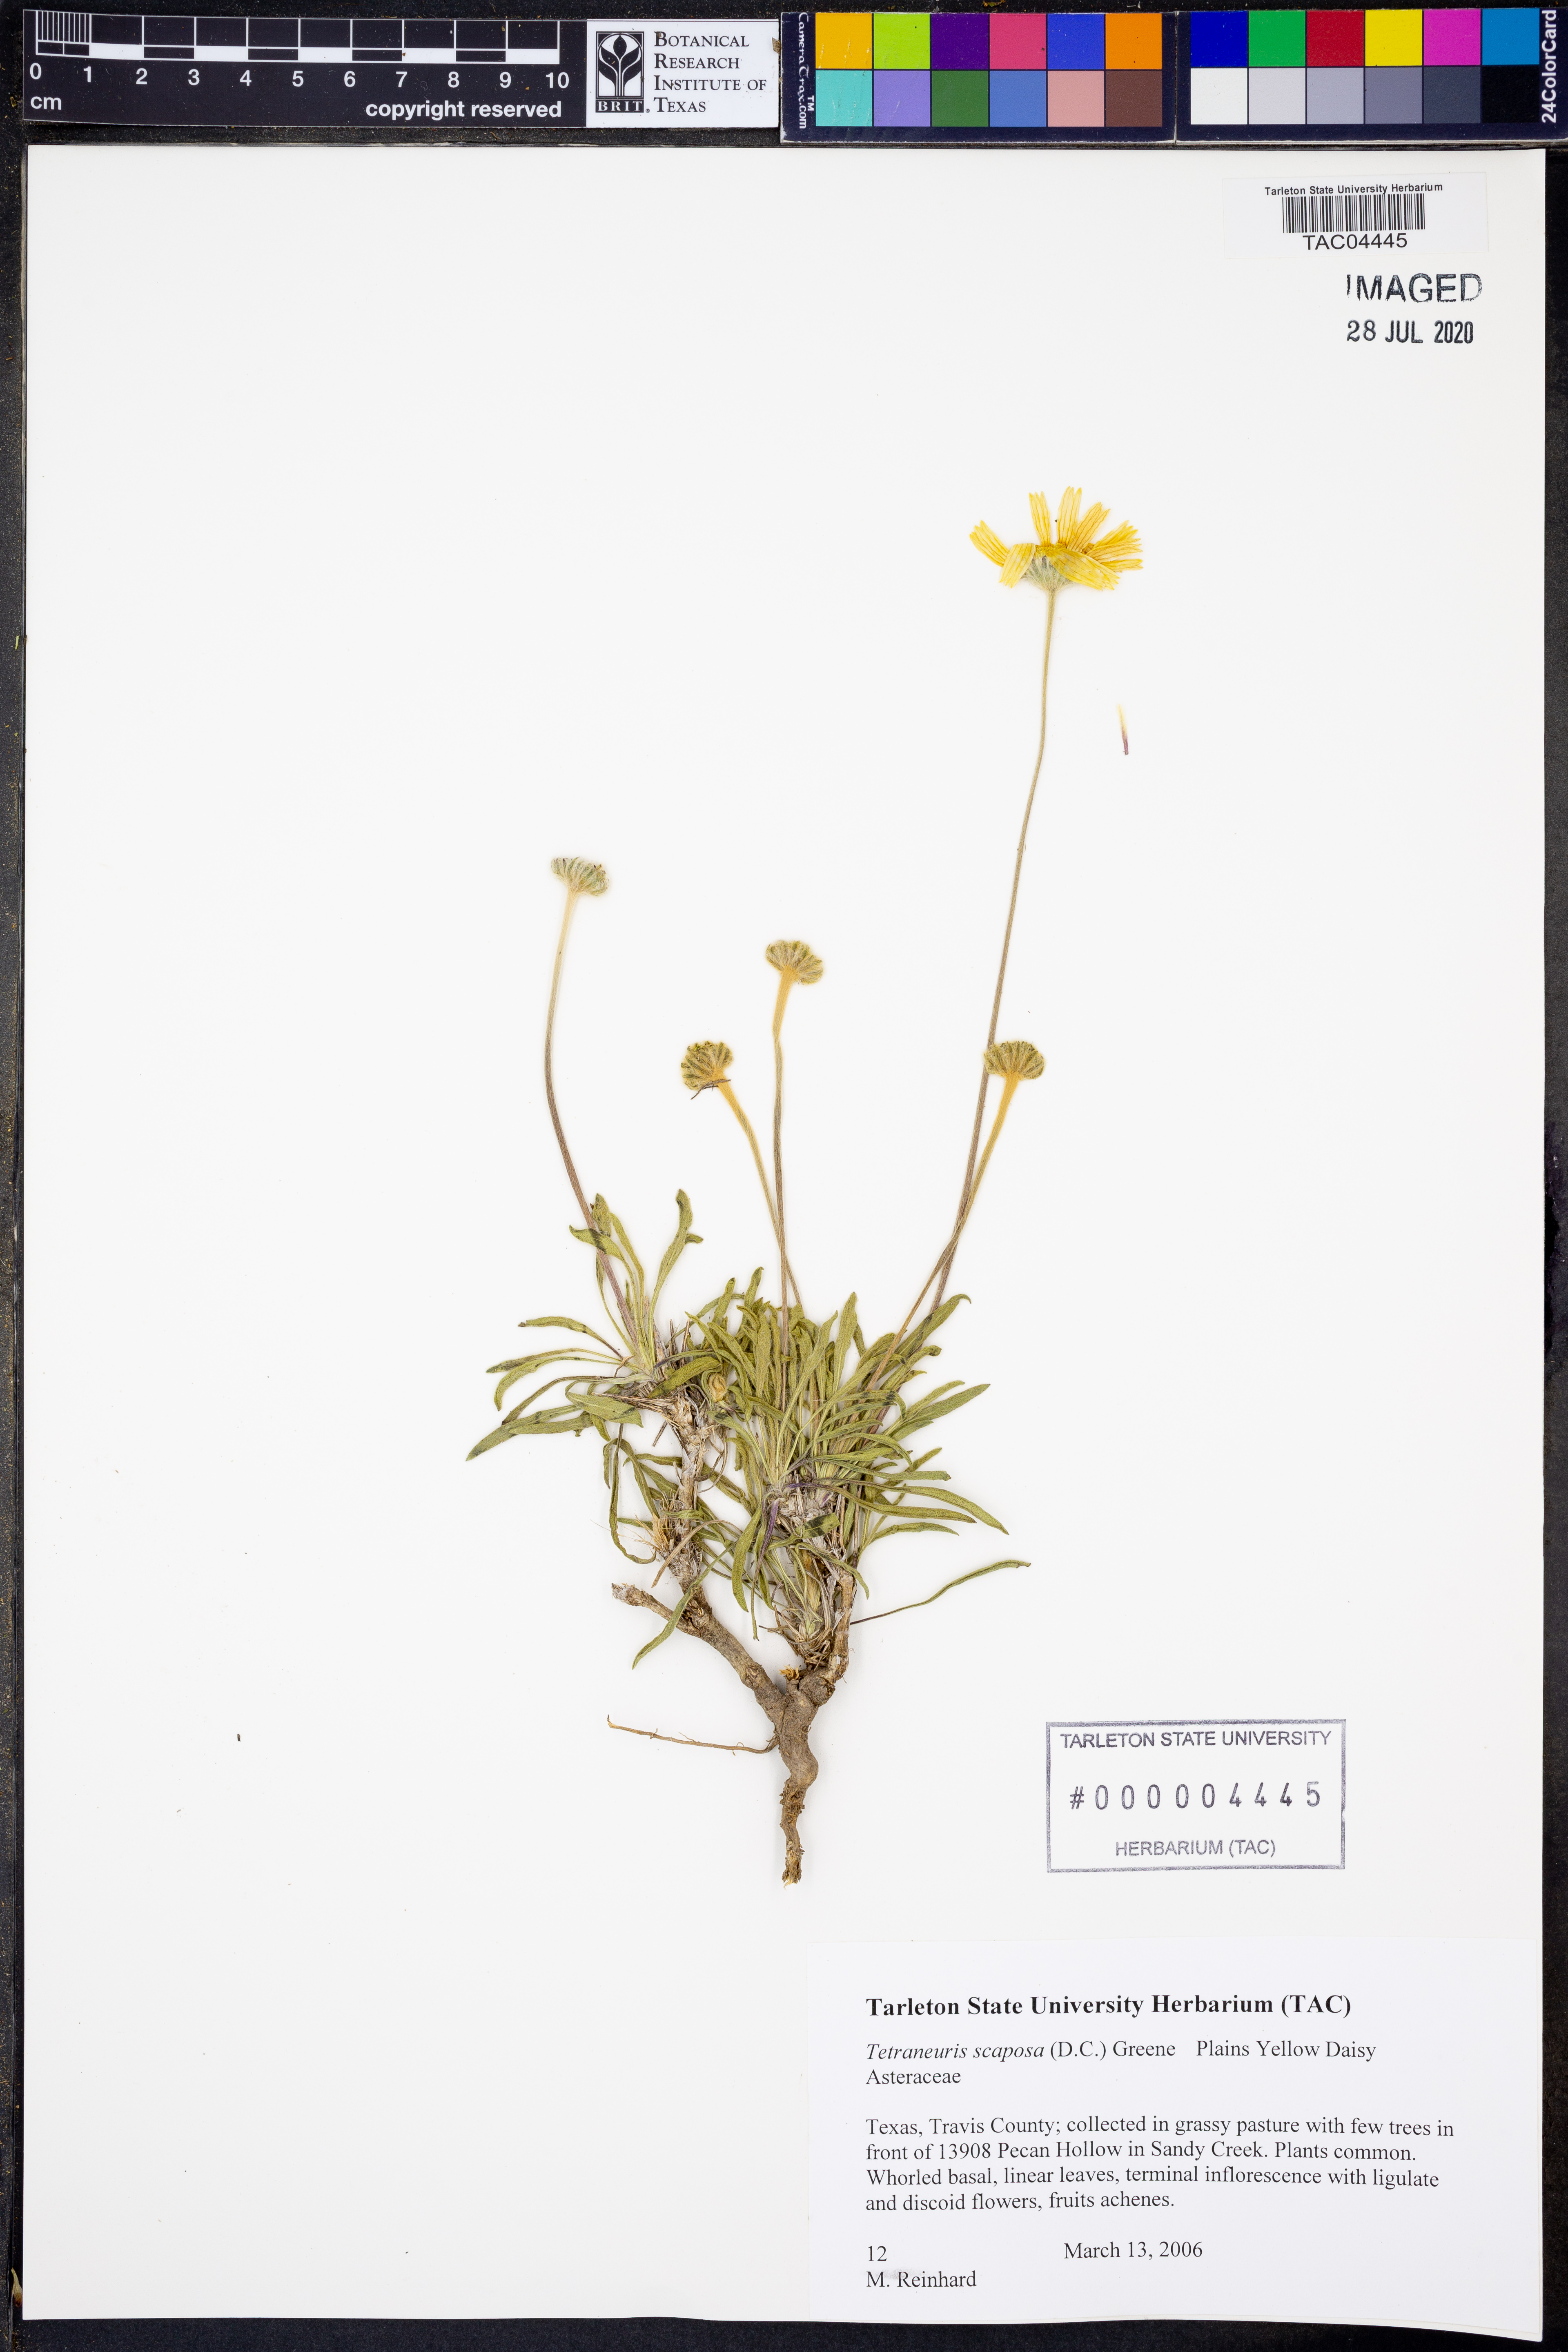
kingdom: Plantae
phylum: Tracheophyta
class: Magnoliopsida
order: Asterales
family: Asteraceae
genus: Tetraneuris
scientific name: Tetraneuris scaposa
